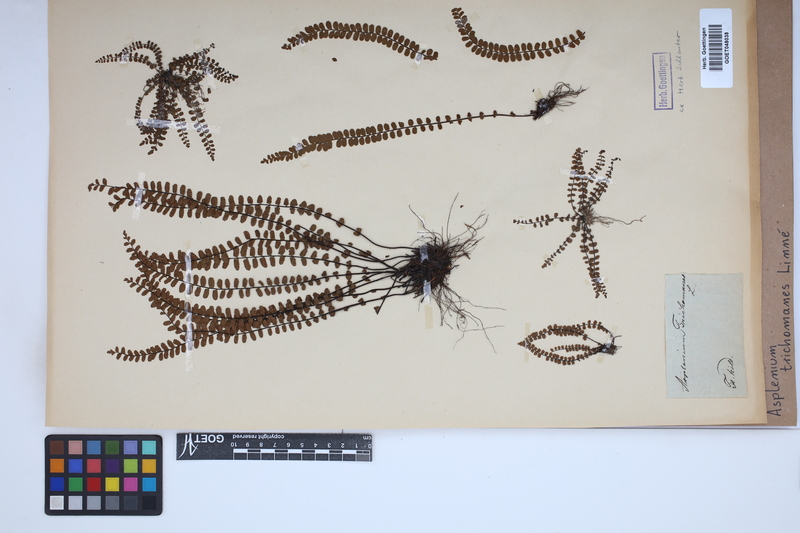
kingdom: Plantae
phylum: Tracheophyta
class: Polypodiopsida
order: Polypodiales
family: Aspleniaceae
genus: Asplenium
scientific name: Asplenium trichomanes
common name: Maidenhair spleenwort
